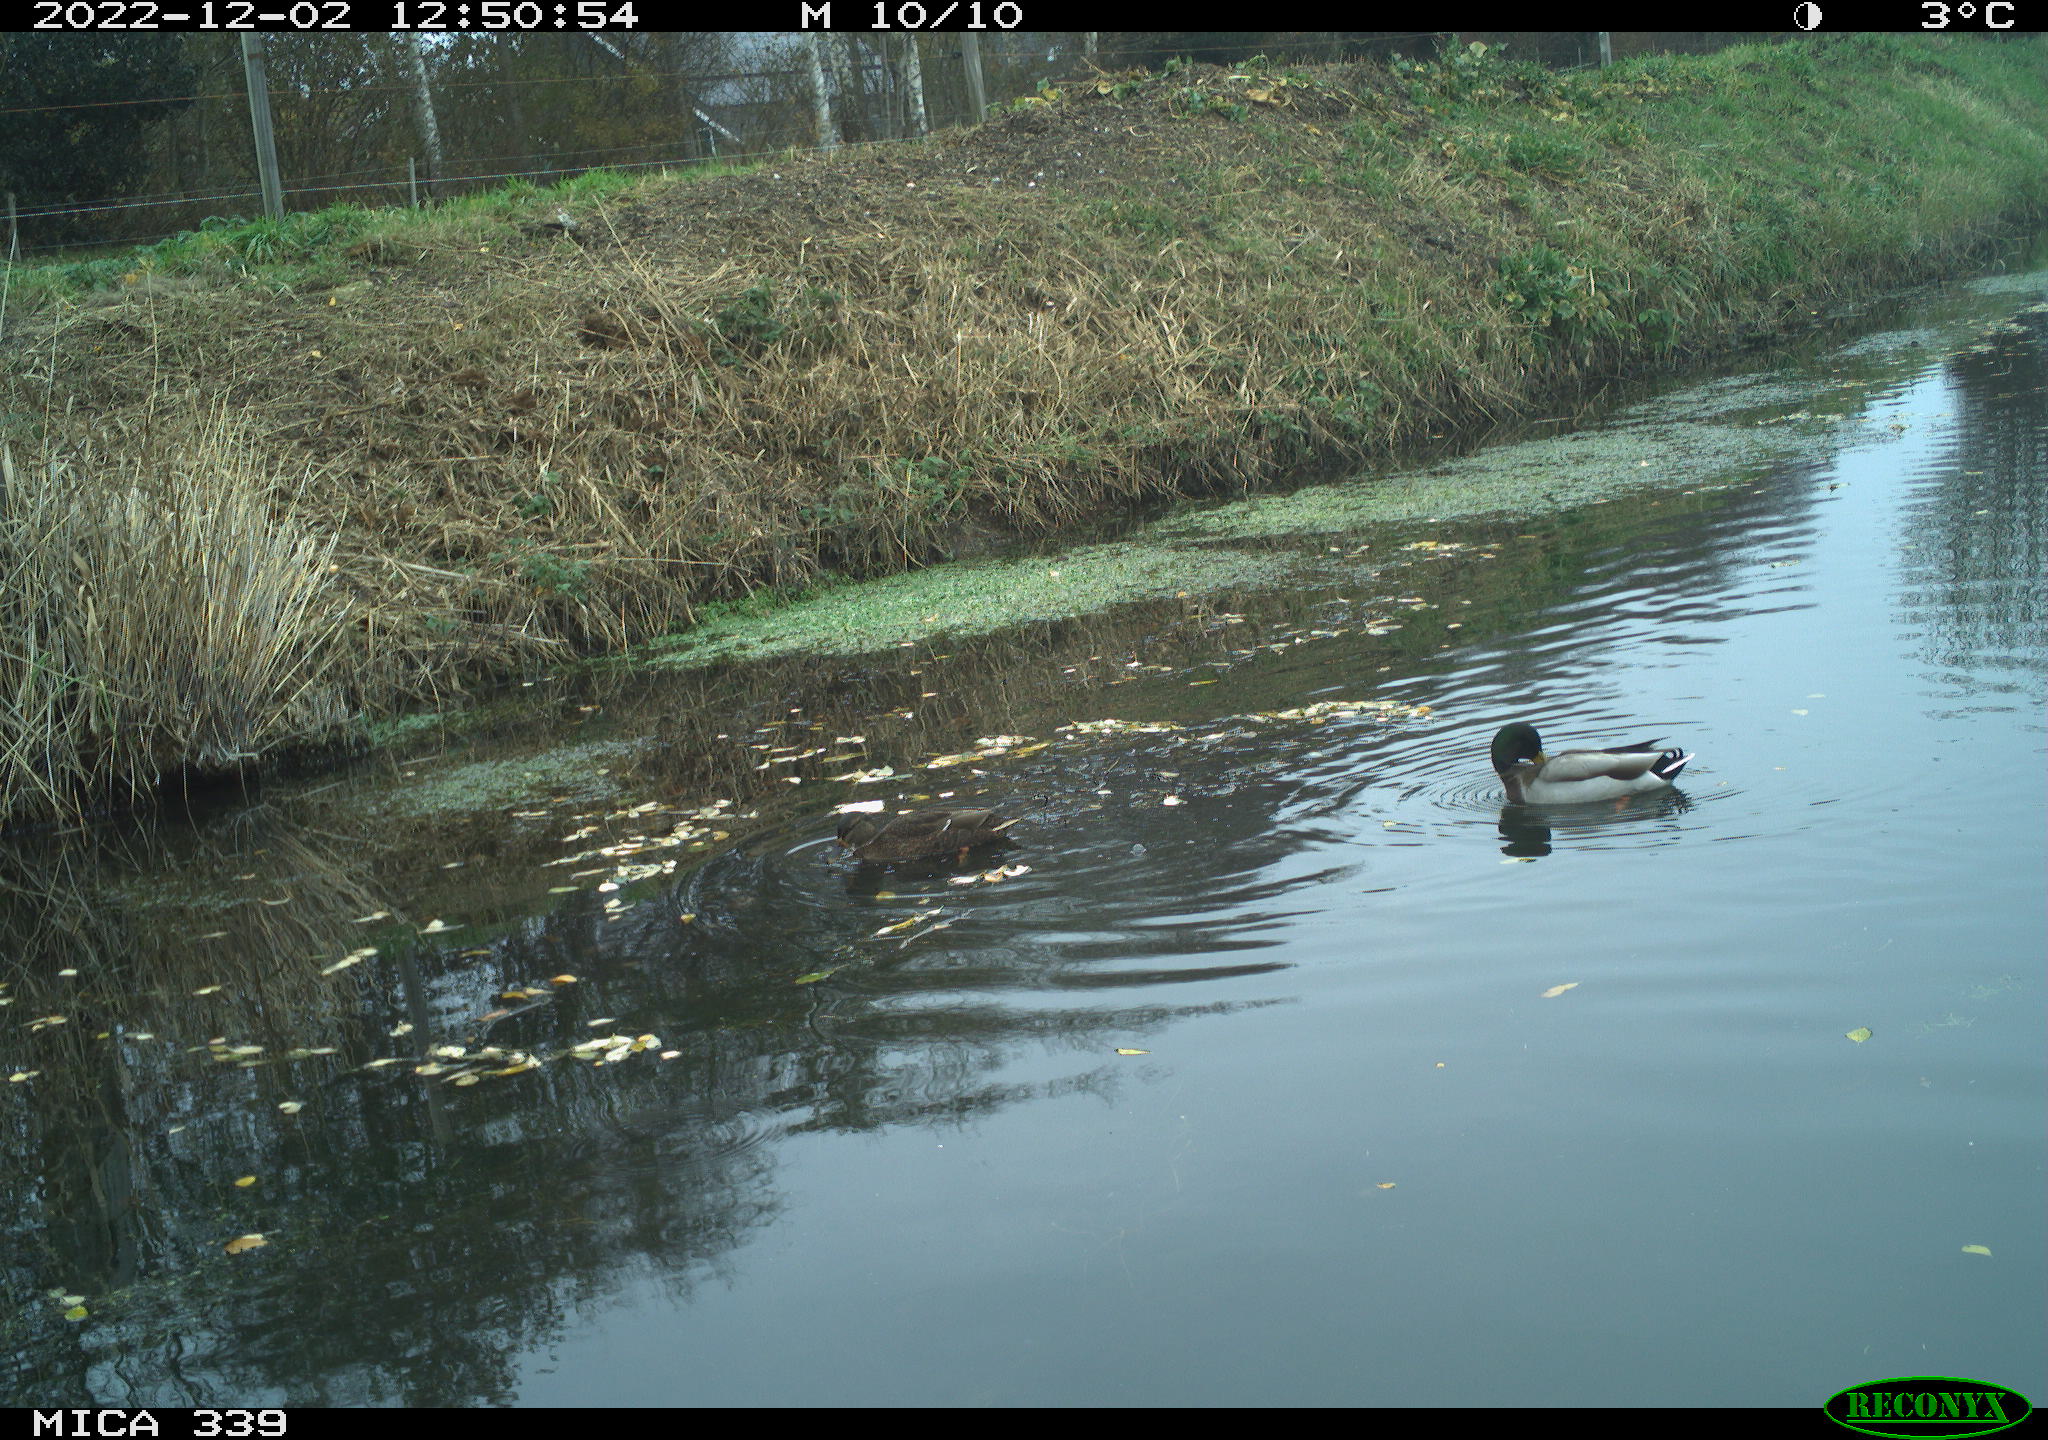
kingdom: Animalia
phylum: Chordata
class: Aves
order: Anseriformes
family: Anatidae
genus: Anas
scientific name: Anas
